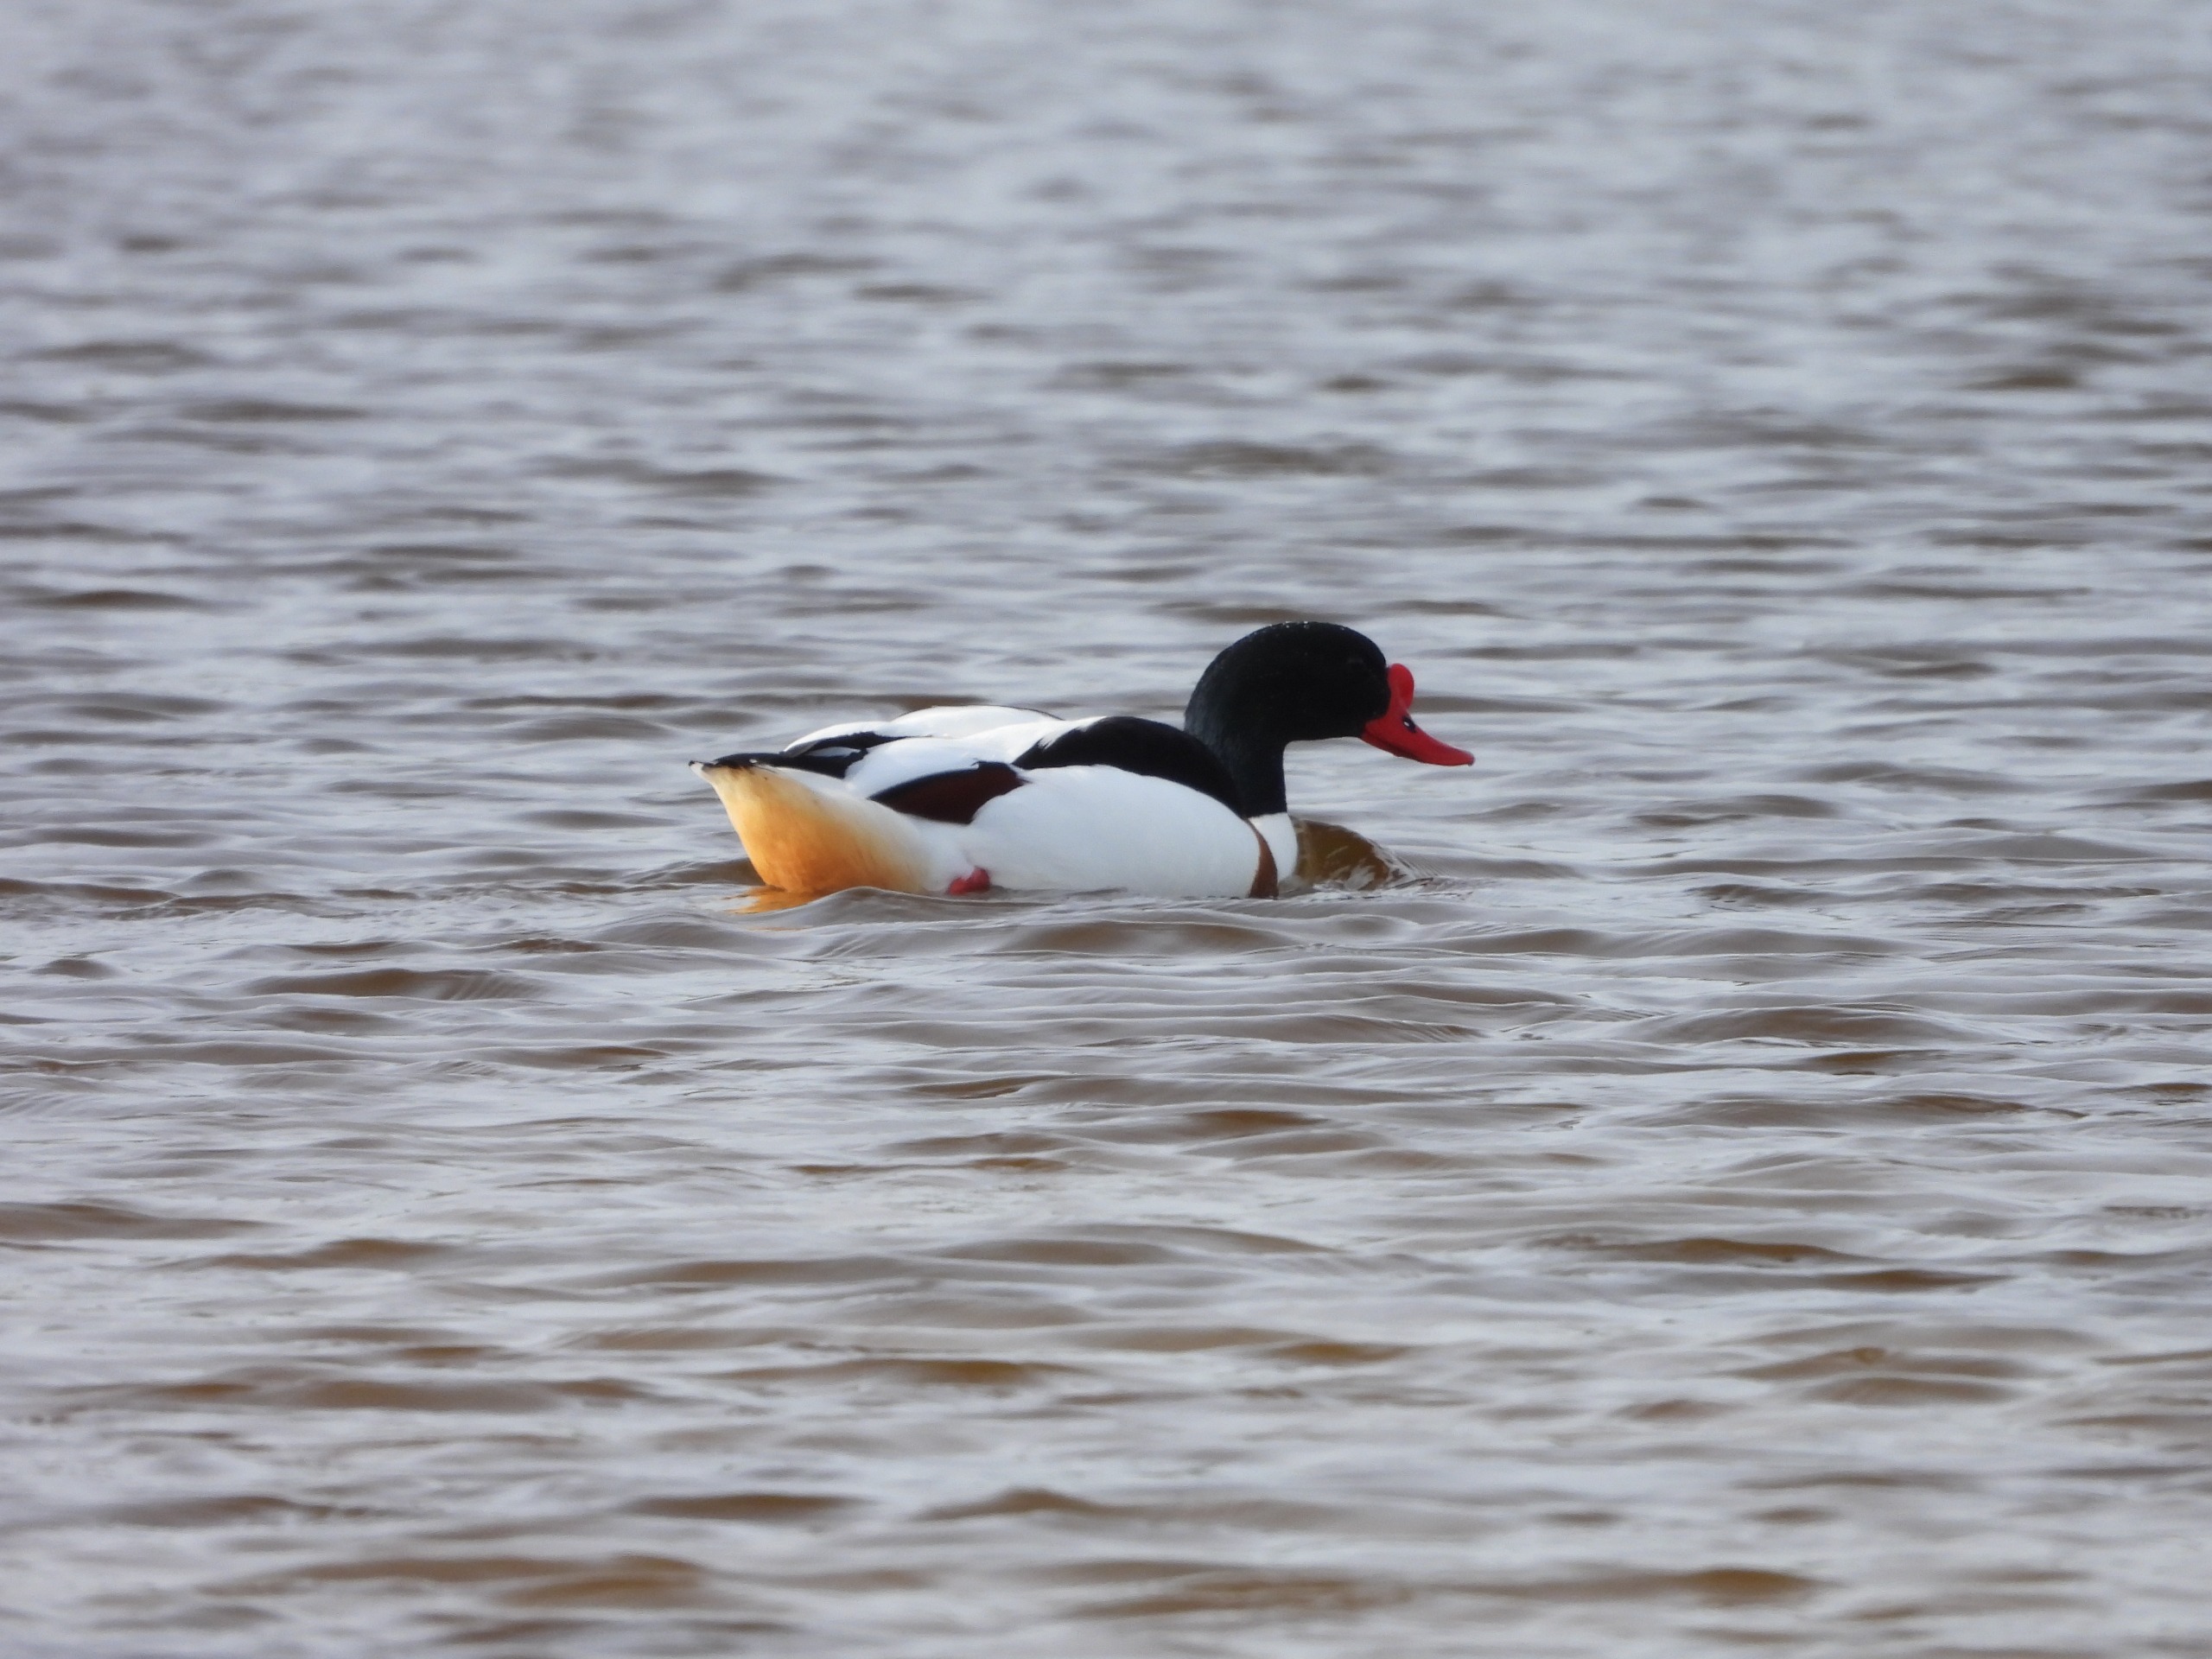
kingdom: Animalia
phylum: Chordata
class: Aves
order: Anseriformes
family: Anatidae
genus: Tadorna
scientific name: Tadorna tadorna
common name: Gravand
